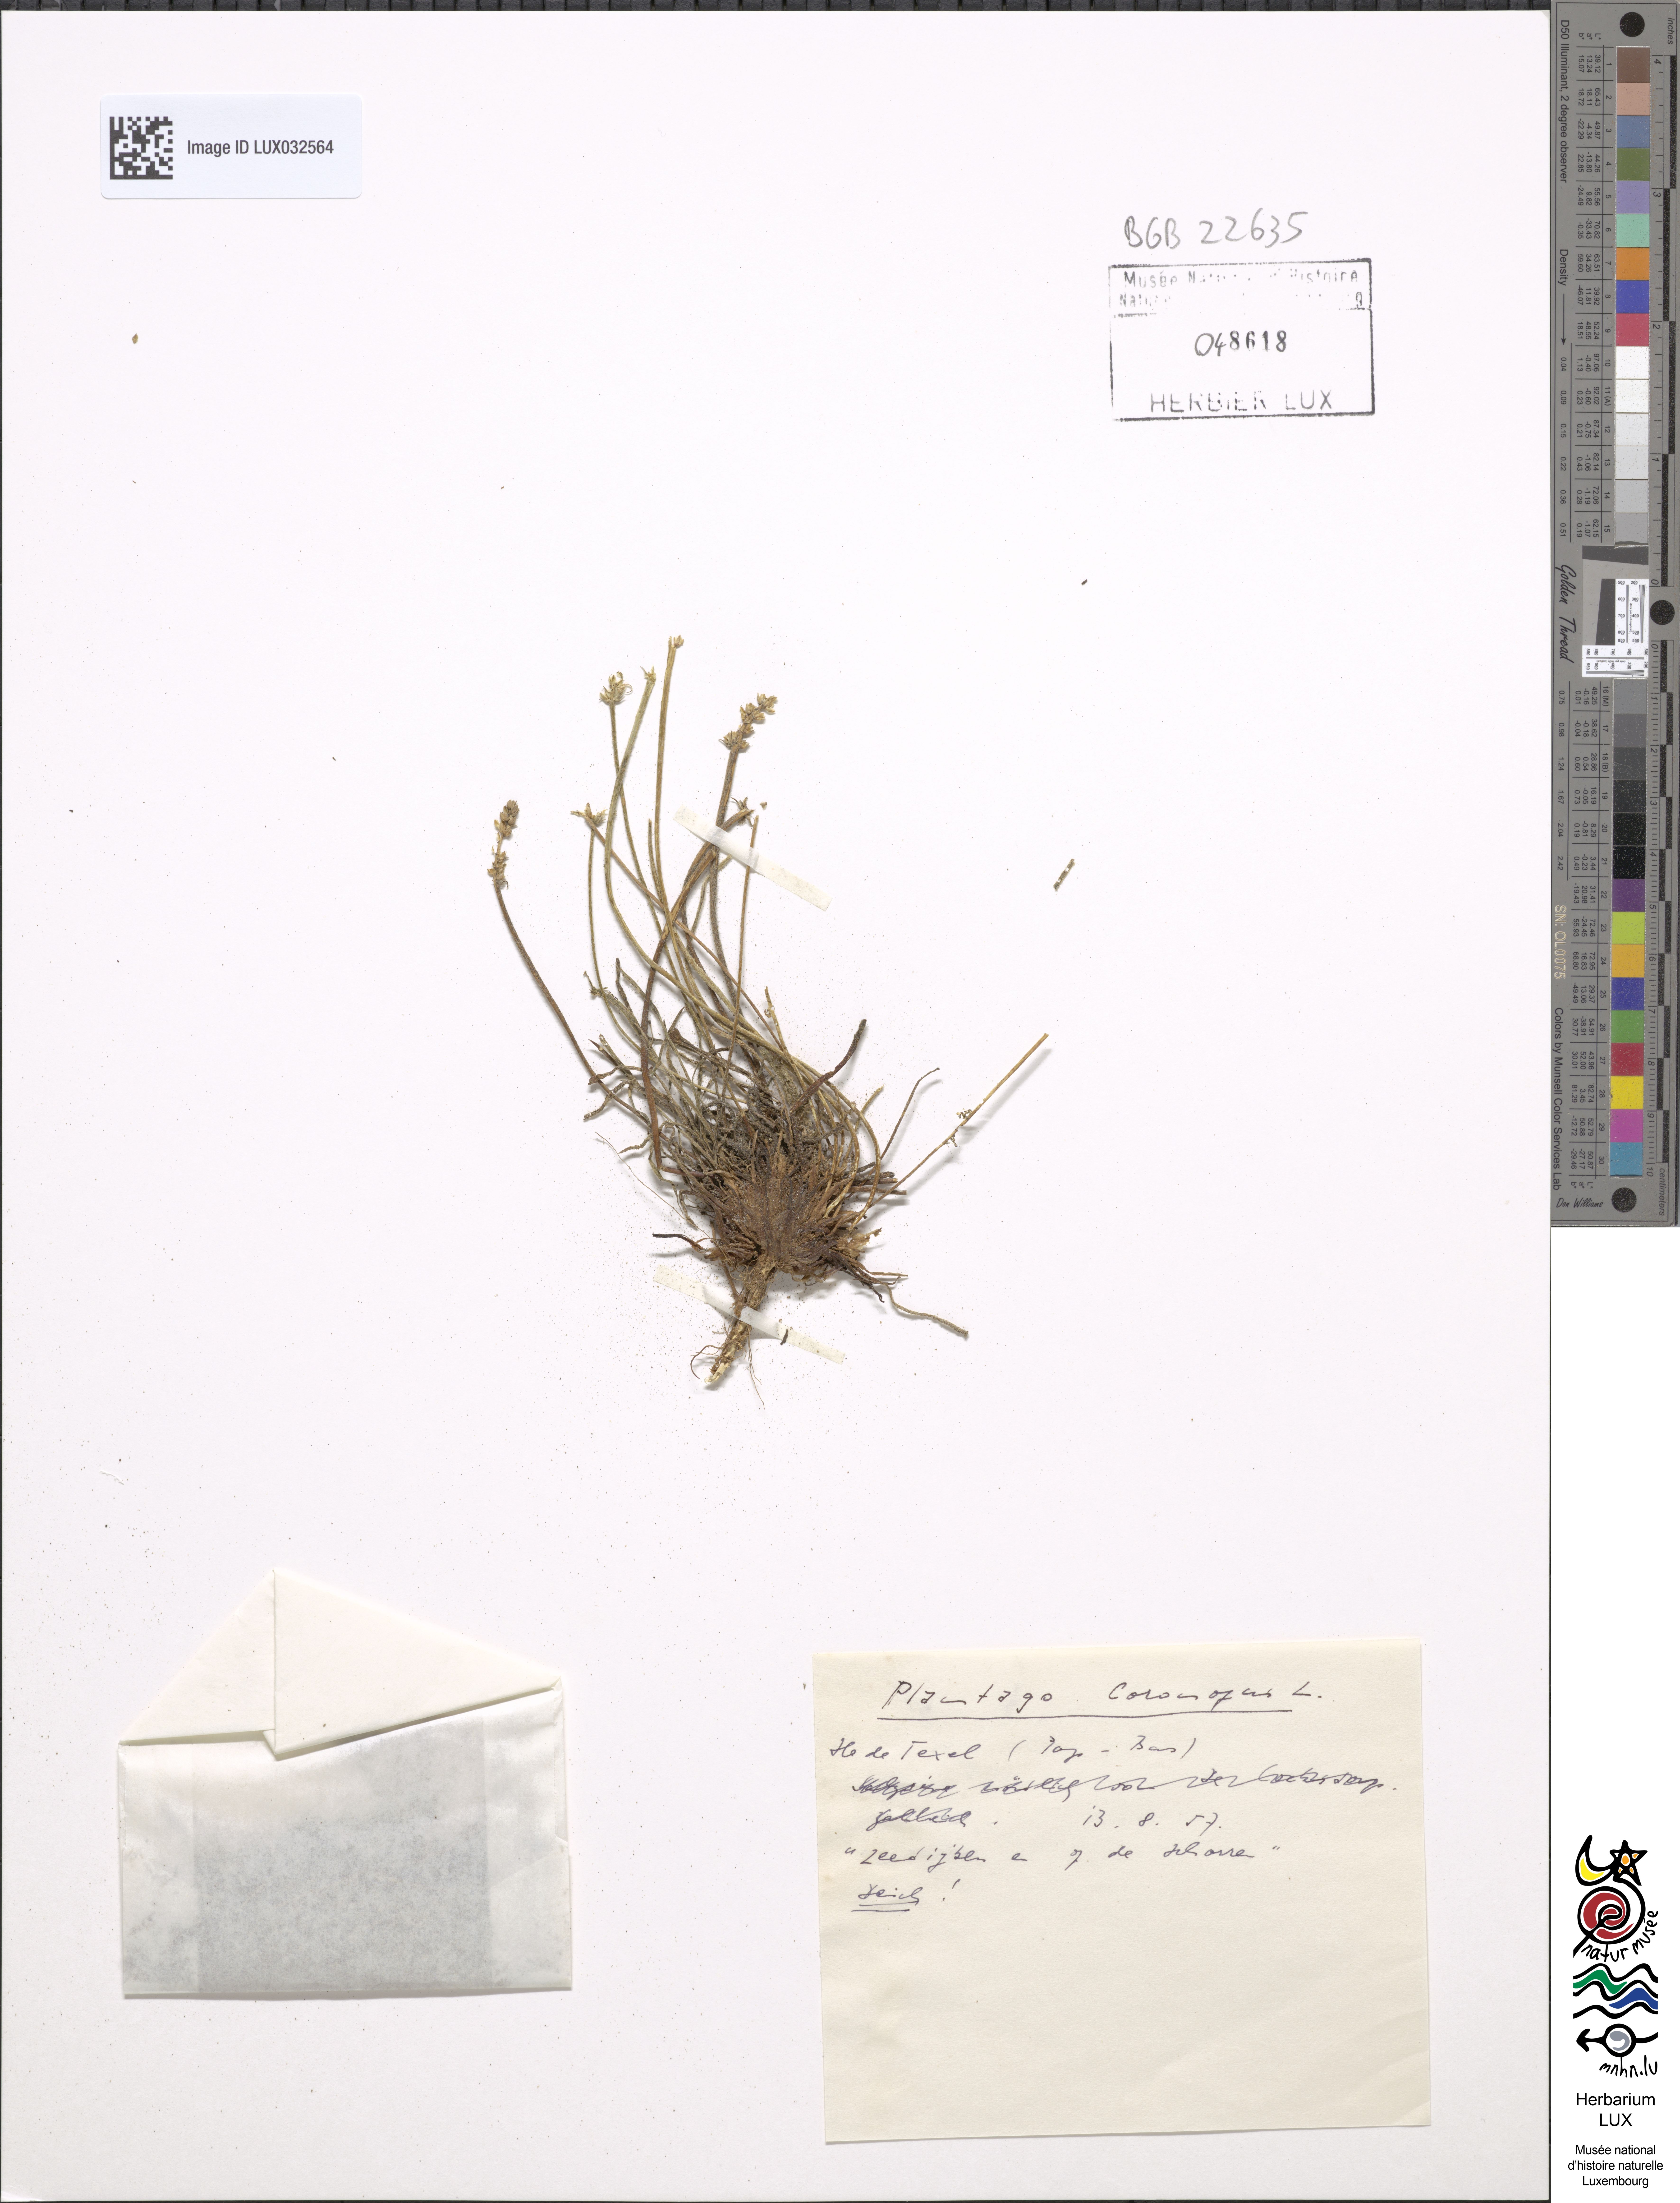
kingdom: Plantae
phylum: Tracheophyta
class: Magnoliopsida
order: Lamiales
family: Plantaginaceae
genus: Plantago
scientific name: Plantago coronopus
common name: Buck's-horn plantain
